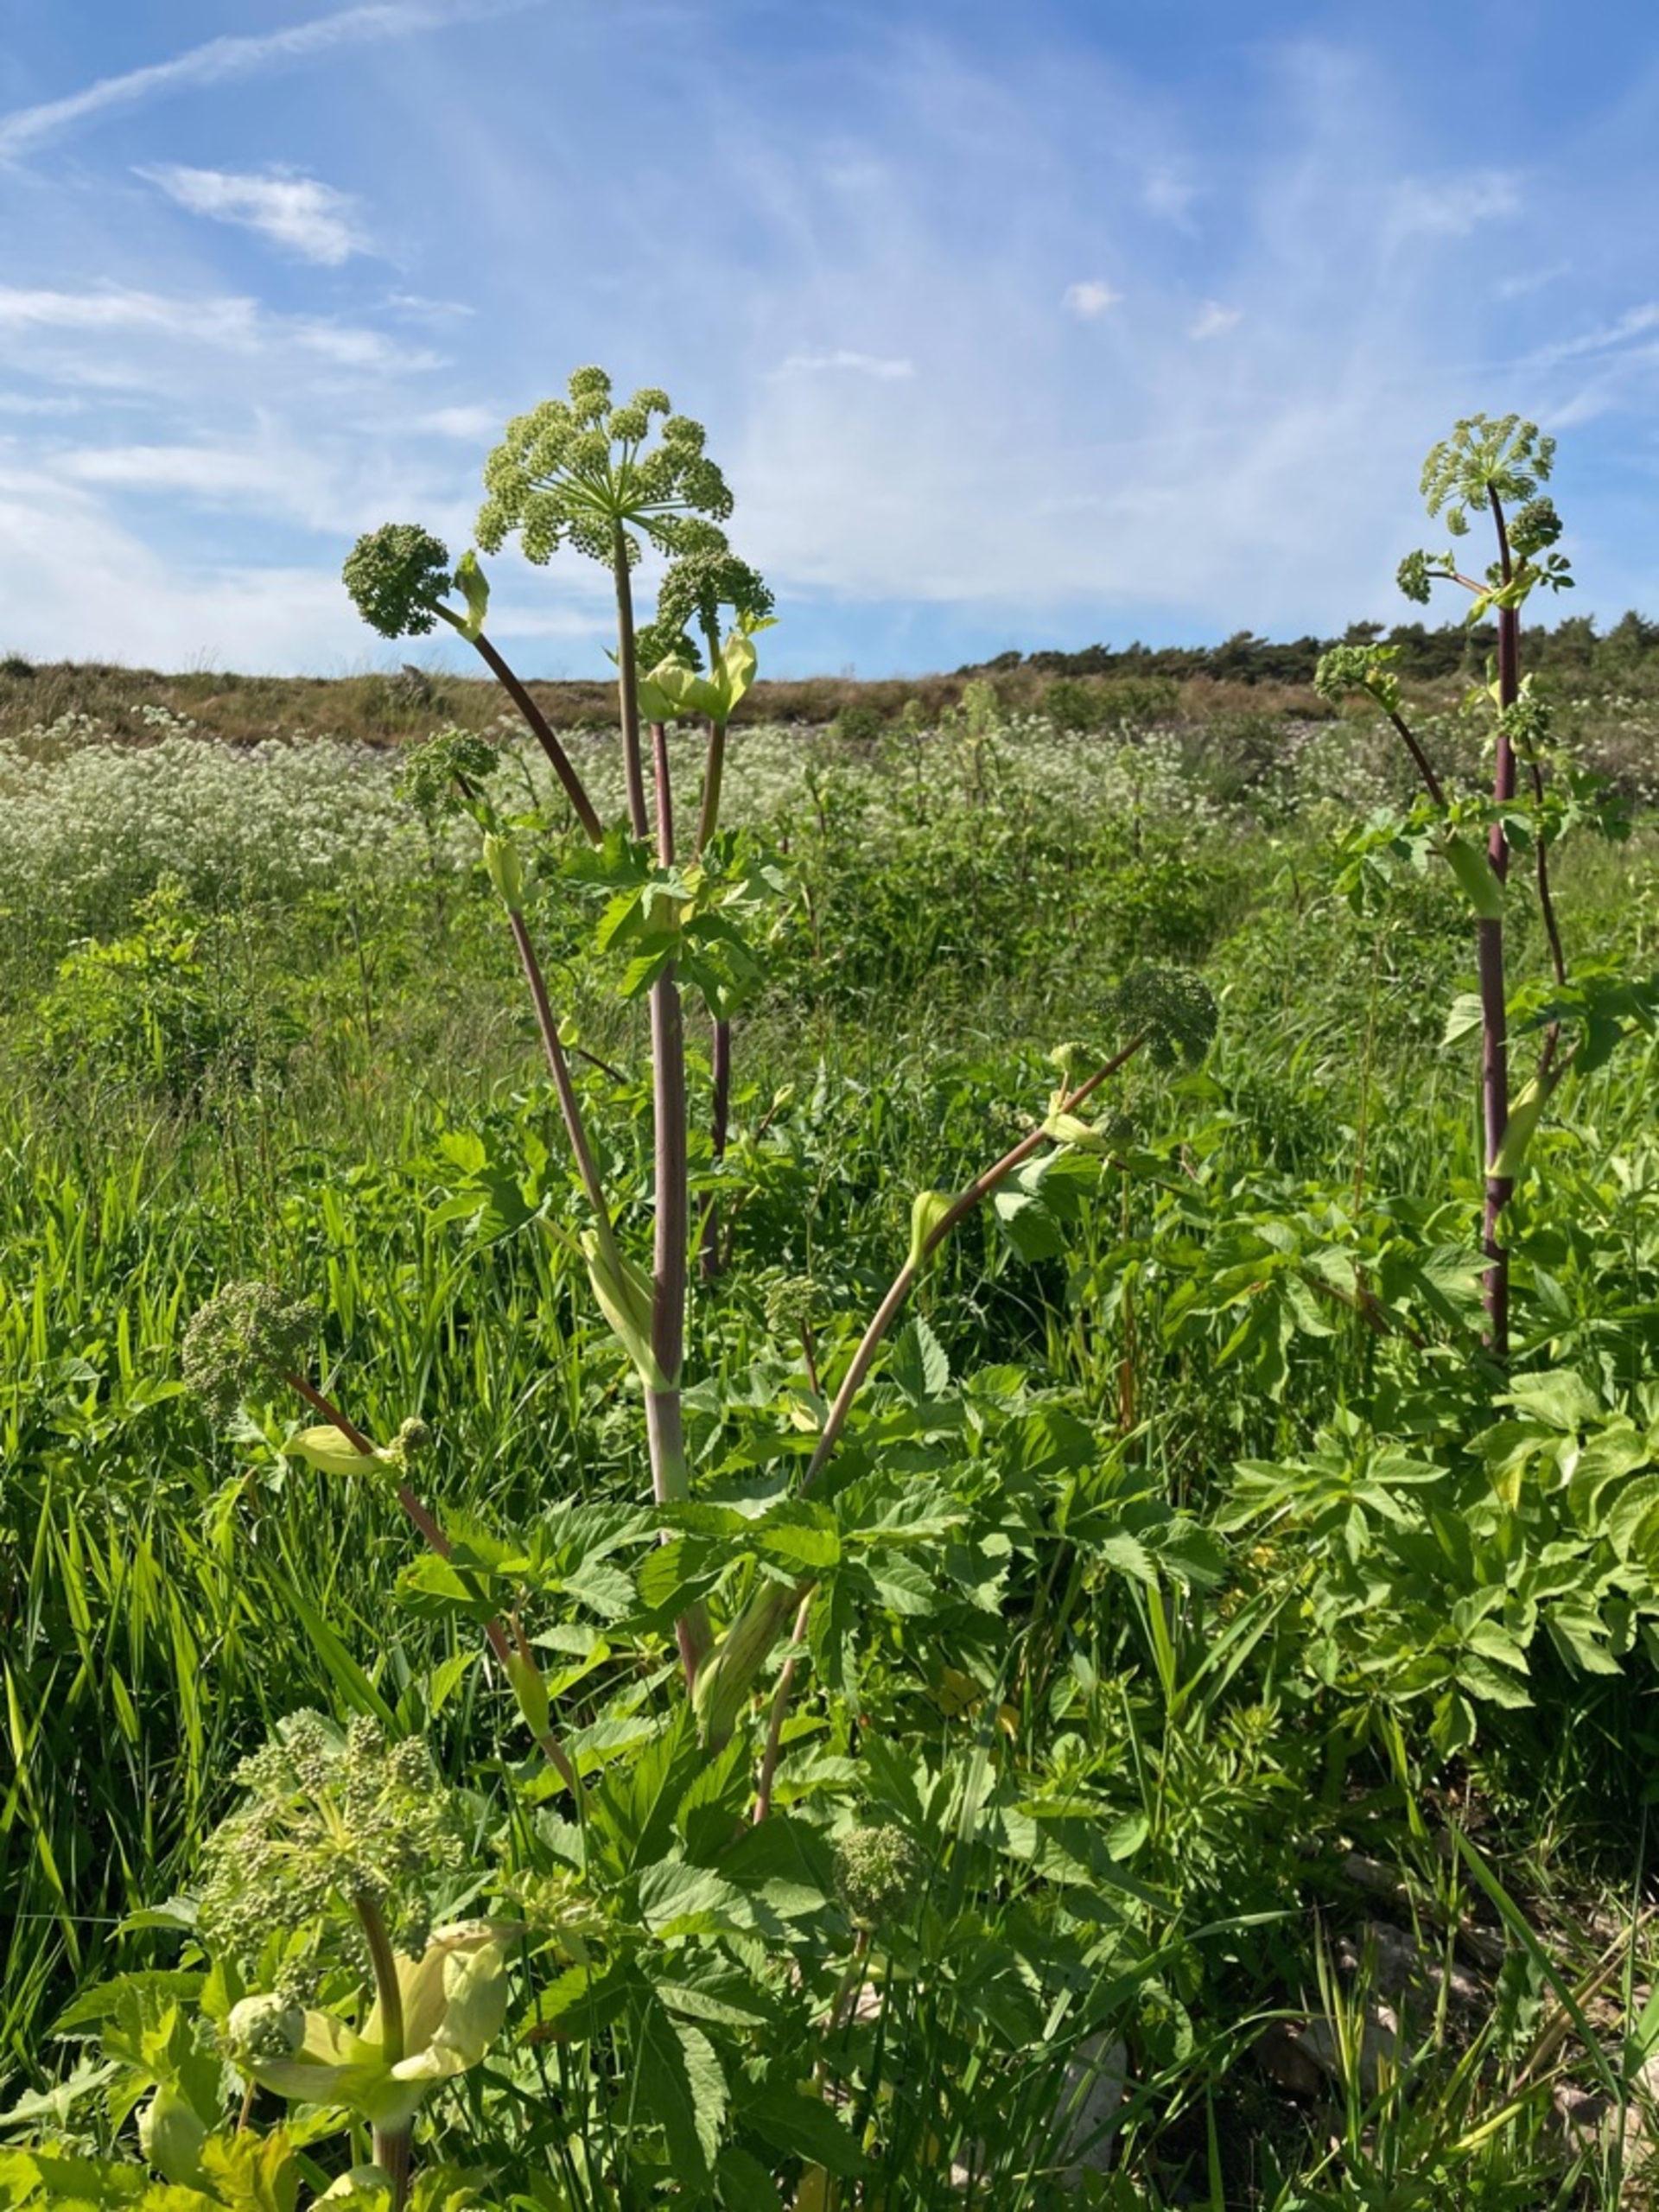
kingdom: Plantae
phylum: Tracheophyta
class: Magnoliopsida
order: Apiales
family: Apiaceae
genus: Angelica
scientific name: Angelica archangelica
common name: Kvan
